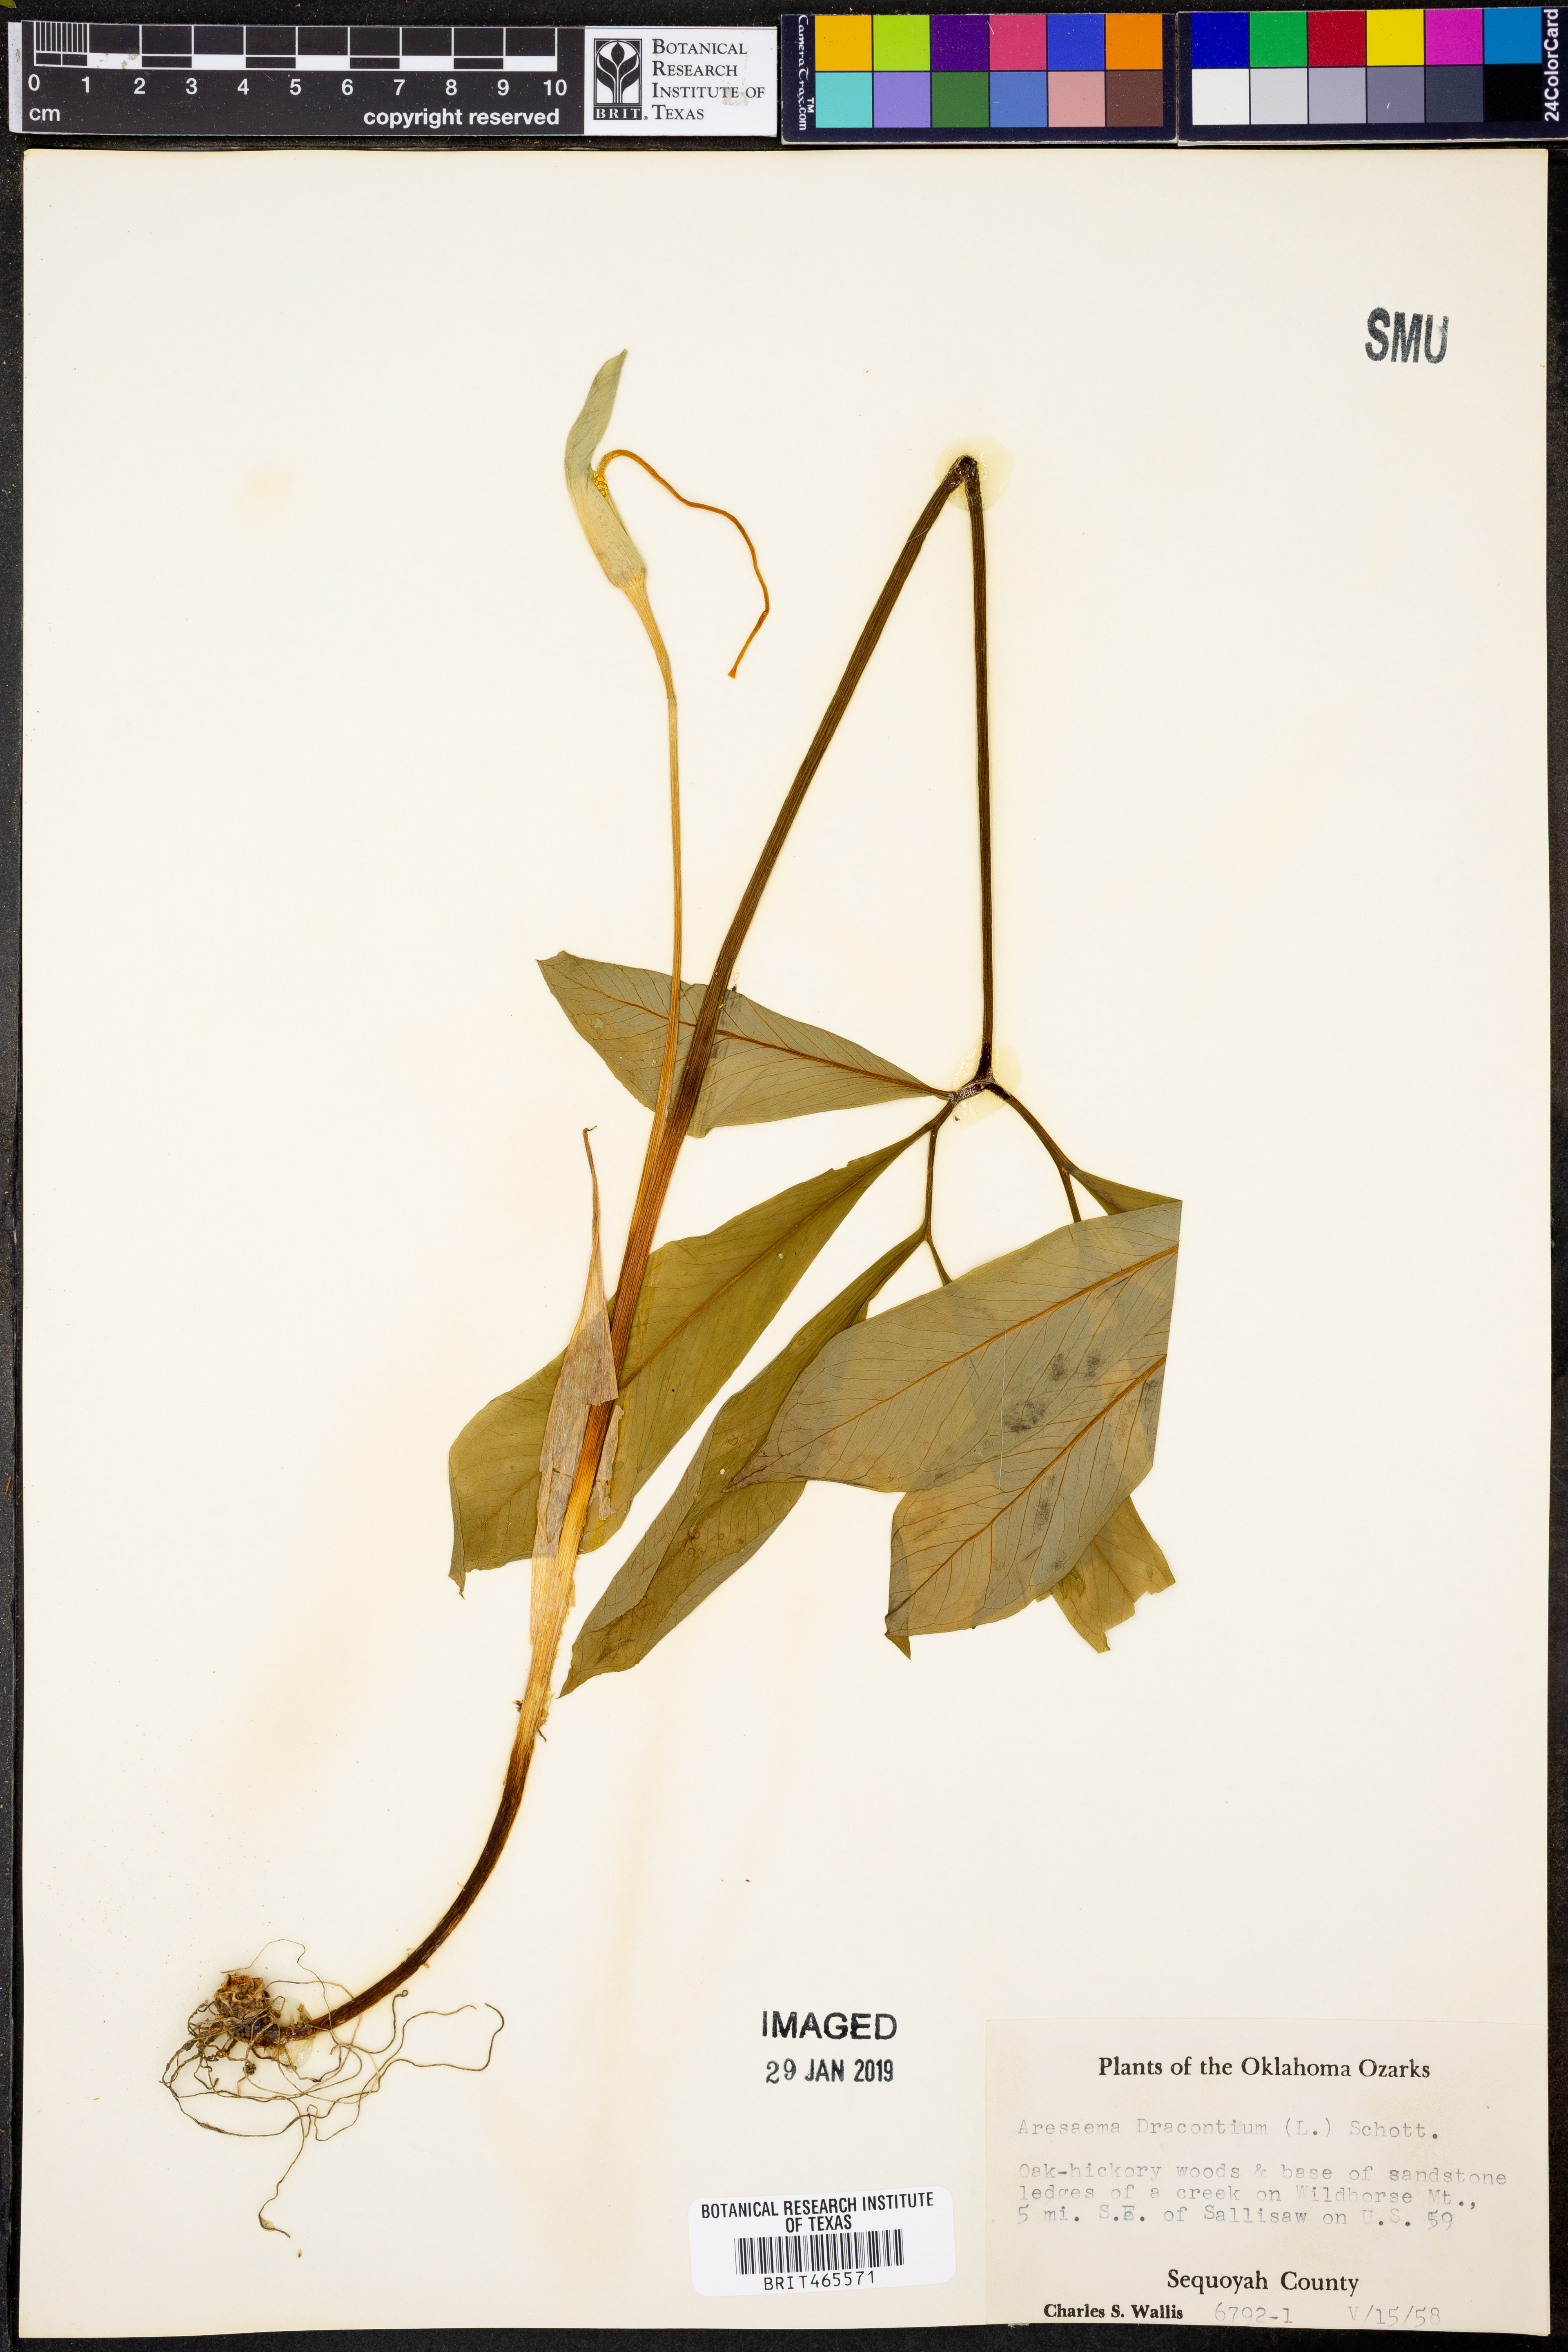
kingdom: Plantae
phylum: Tracheophyta
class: Liliopsida
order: Alismatales
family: Araceae
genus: Arisaema
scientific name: Arisaema dracontium
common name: Dragon-arum
